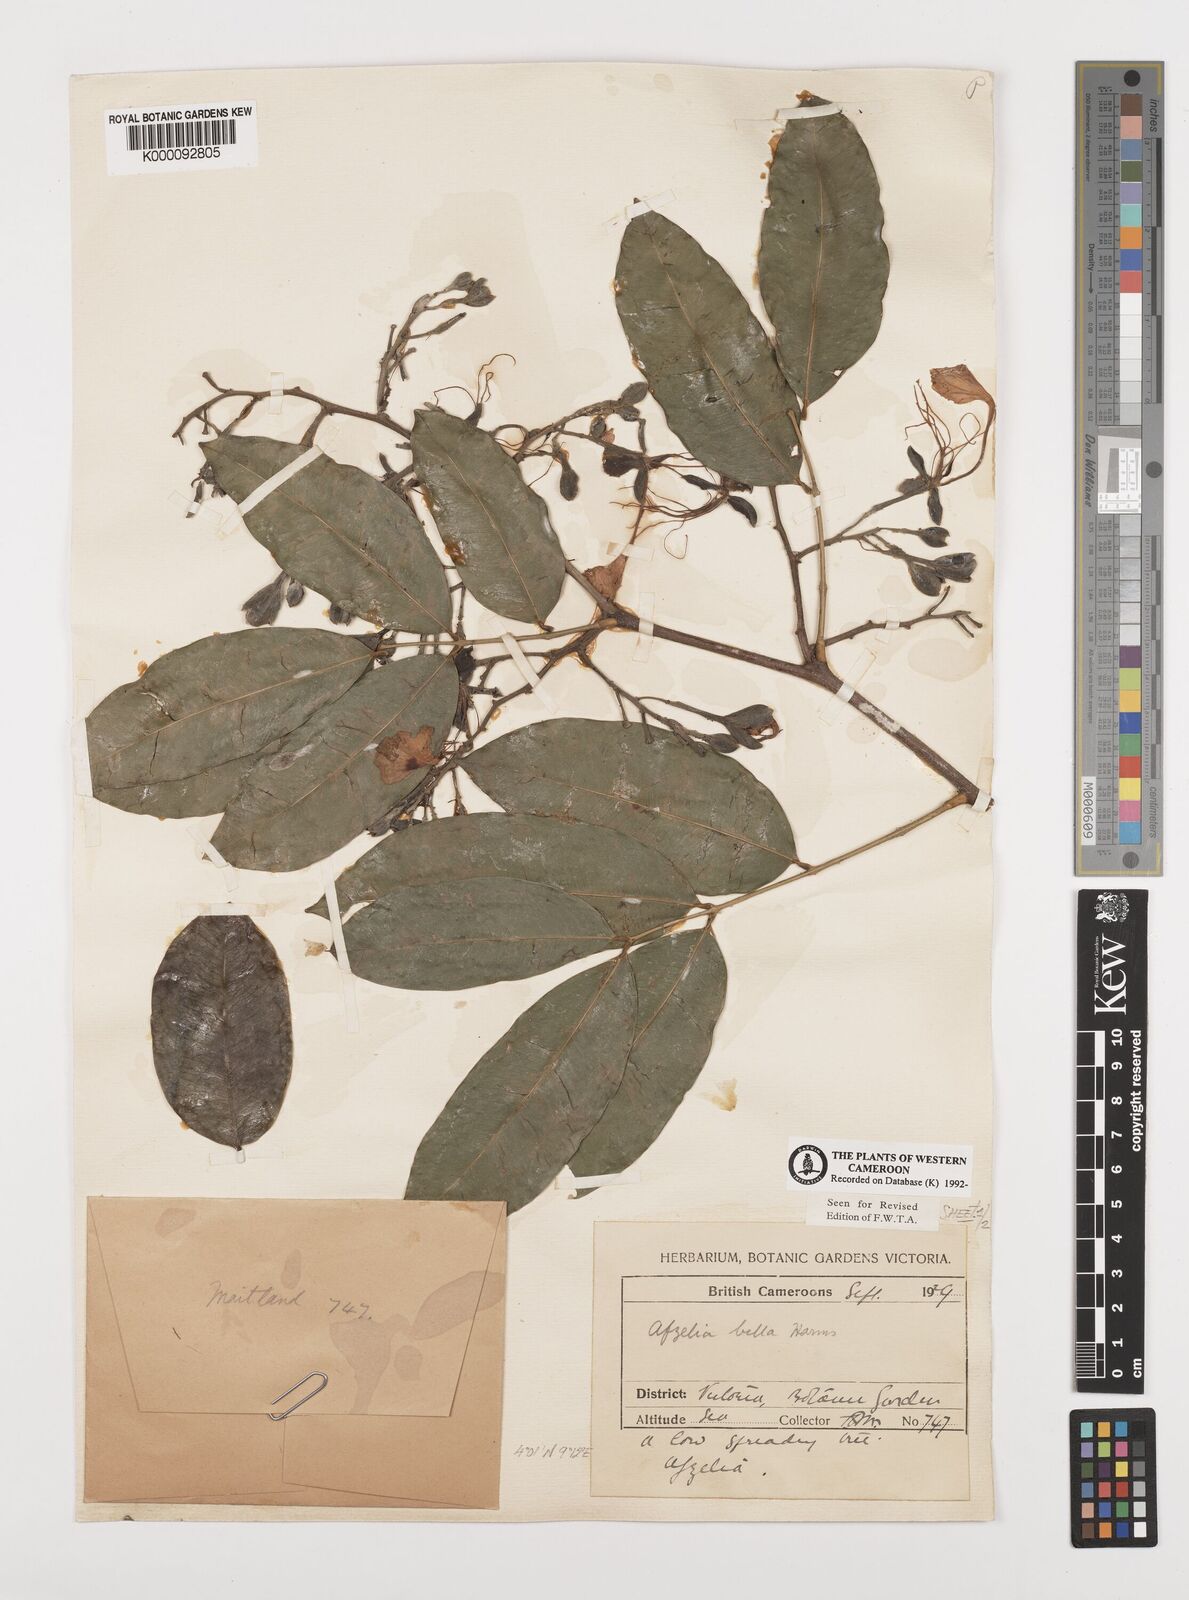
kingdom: Plantae
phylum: Tracheophyta
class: Magnoliopsida
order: Fabales
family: Fabaceae
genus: Afzelia
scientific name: Afzelia bella
